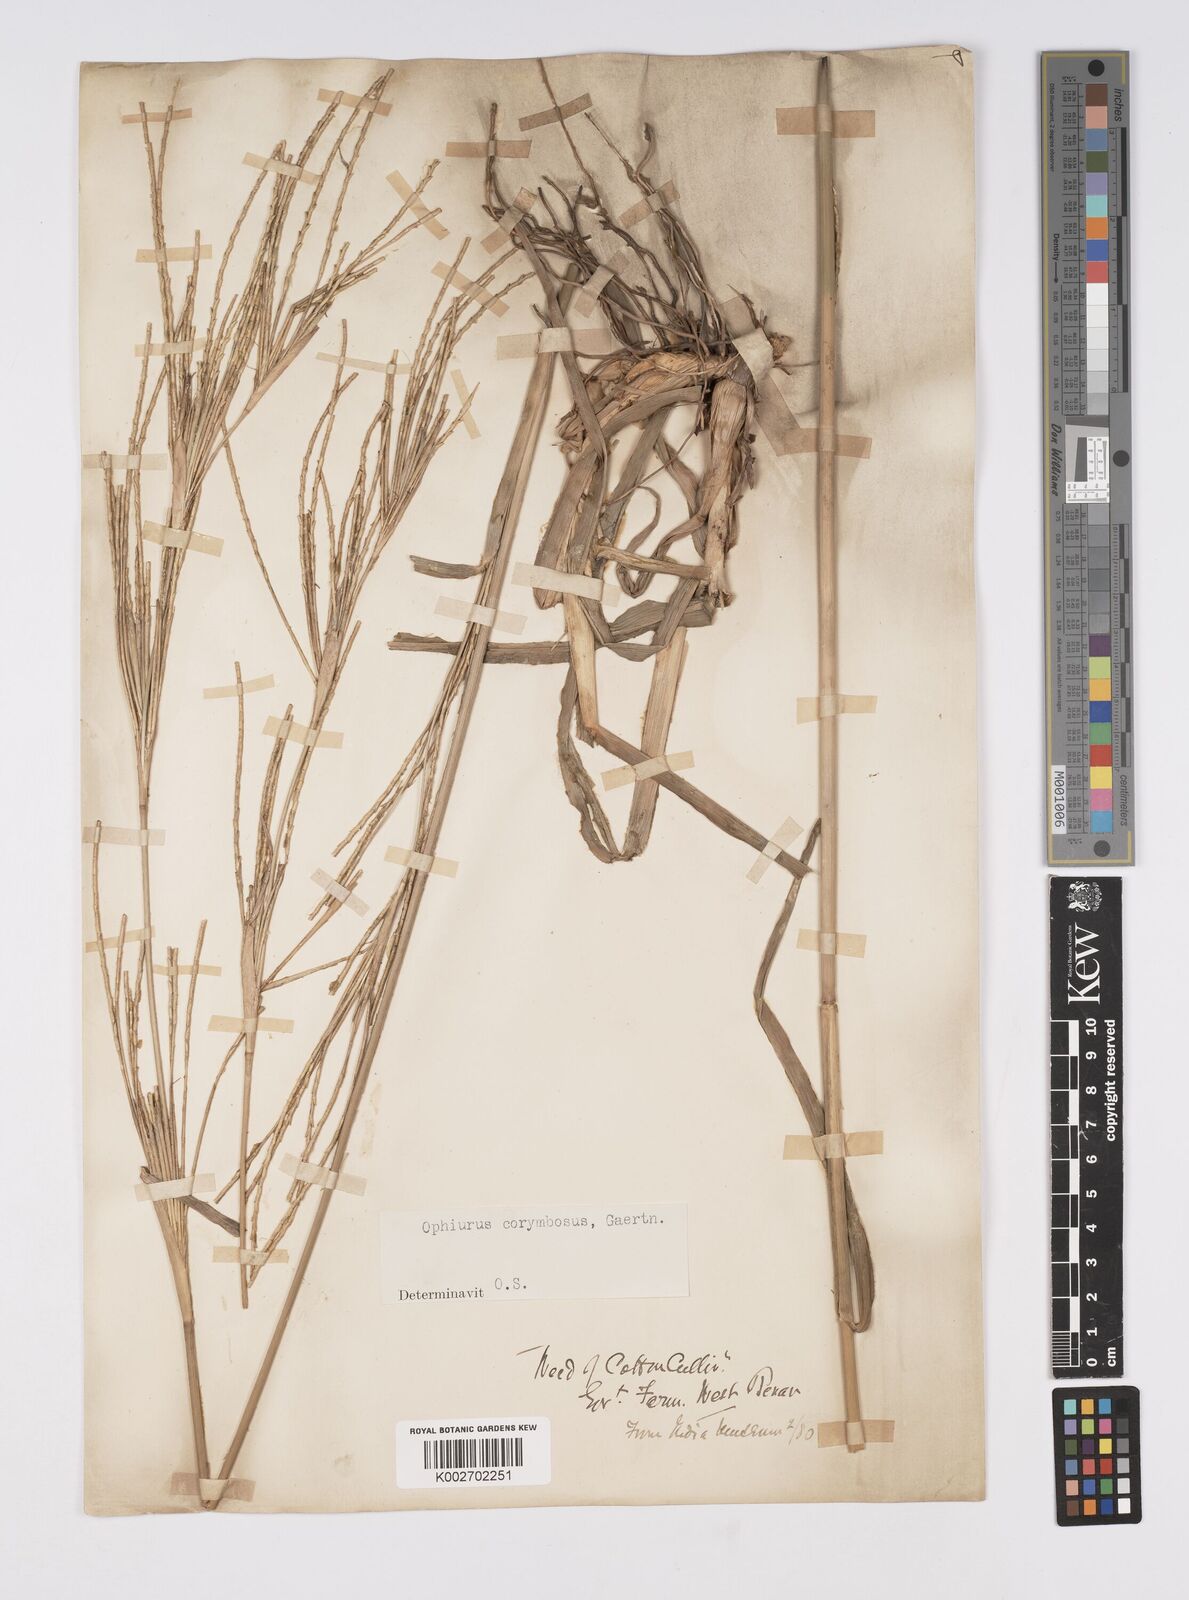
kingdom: Plantae
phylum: Tracheophyta
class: Liliopsida
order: Poales
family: Poaceae
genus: Ophiuros
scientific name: Ophiuros exaltatus
